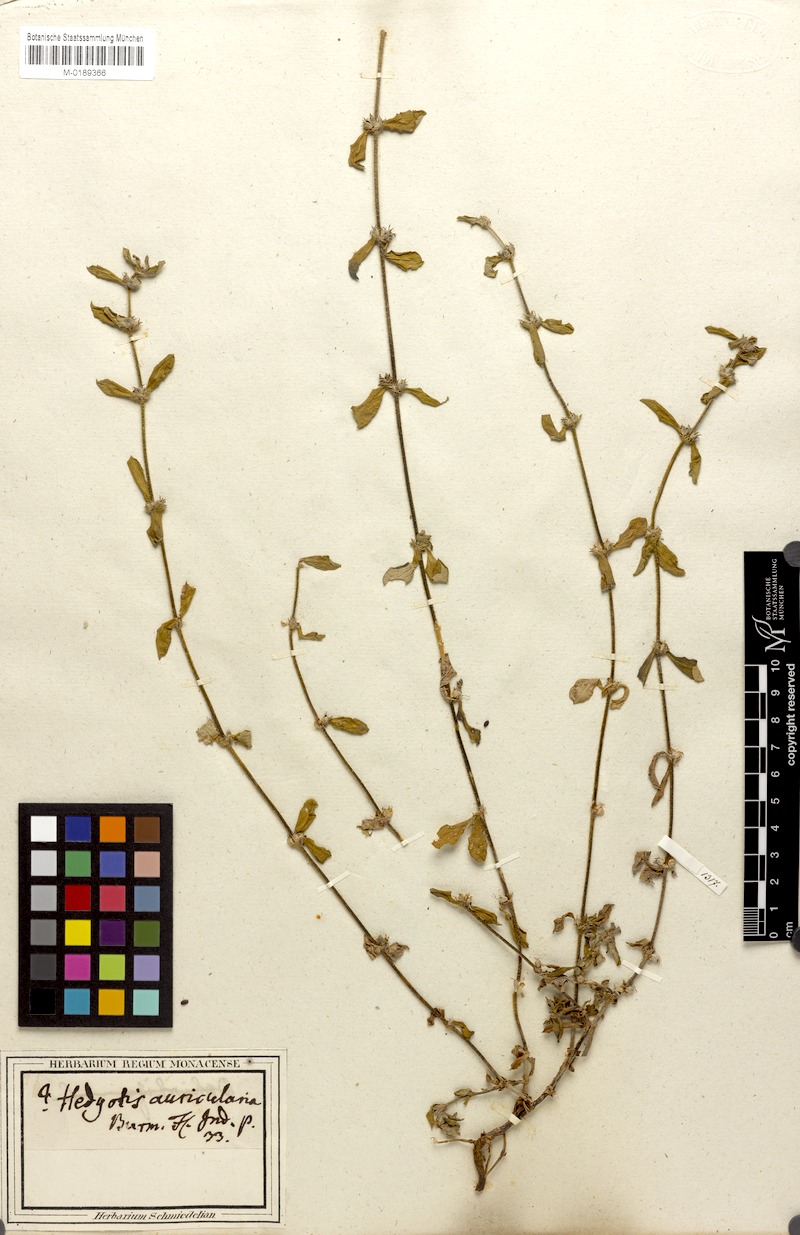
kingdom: Plantae
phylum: Tracheophyta
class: Magnoliopsida
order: Gentianales
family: Rubiaceae
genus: Spermacoce
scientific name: Spermacoce hispida
